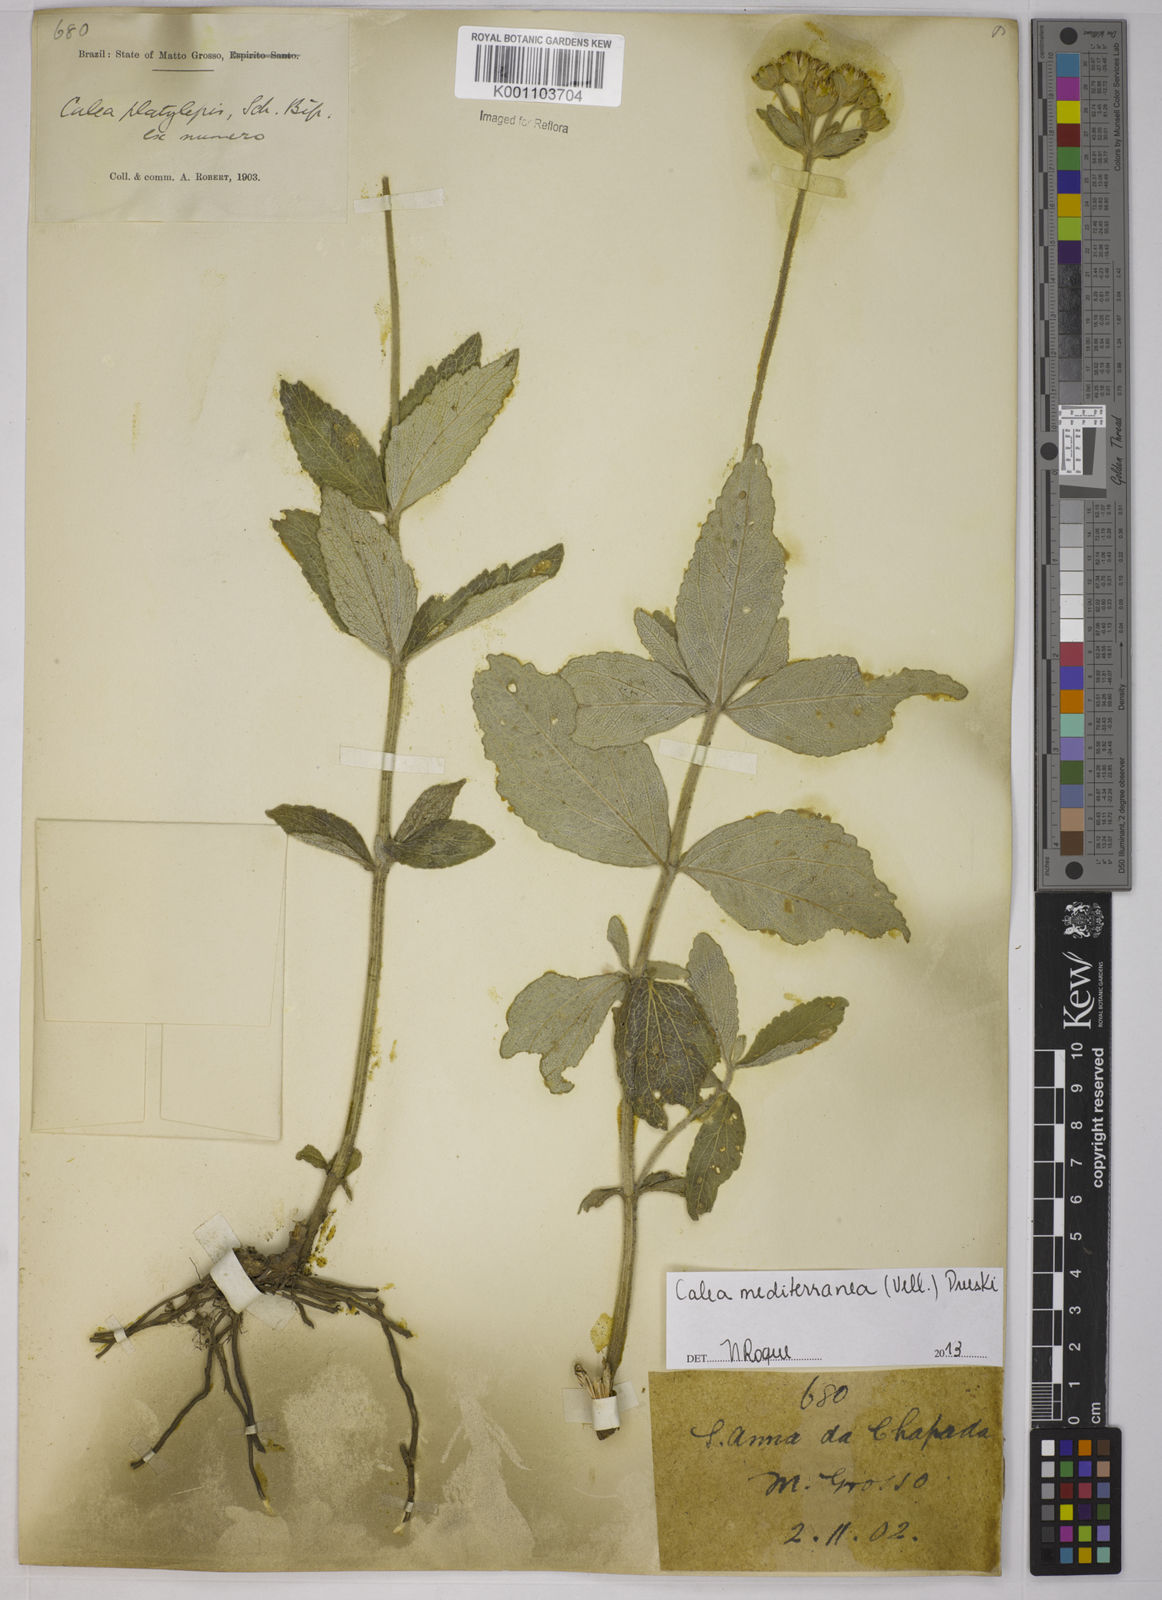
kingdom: Plantae
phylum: Tracheophyta
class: Magnoliopsida
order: Asterales
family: Asteraceae
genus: Calea
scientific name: Calea mediterranea
